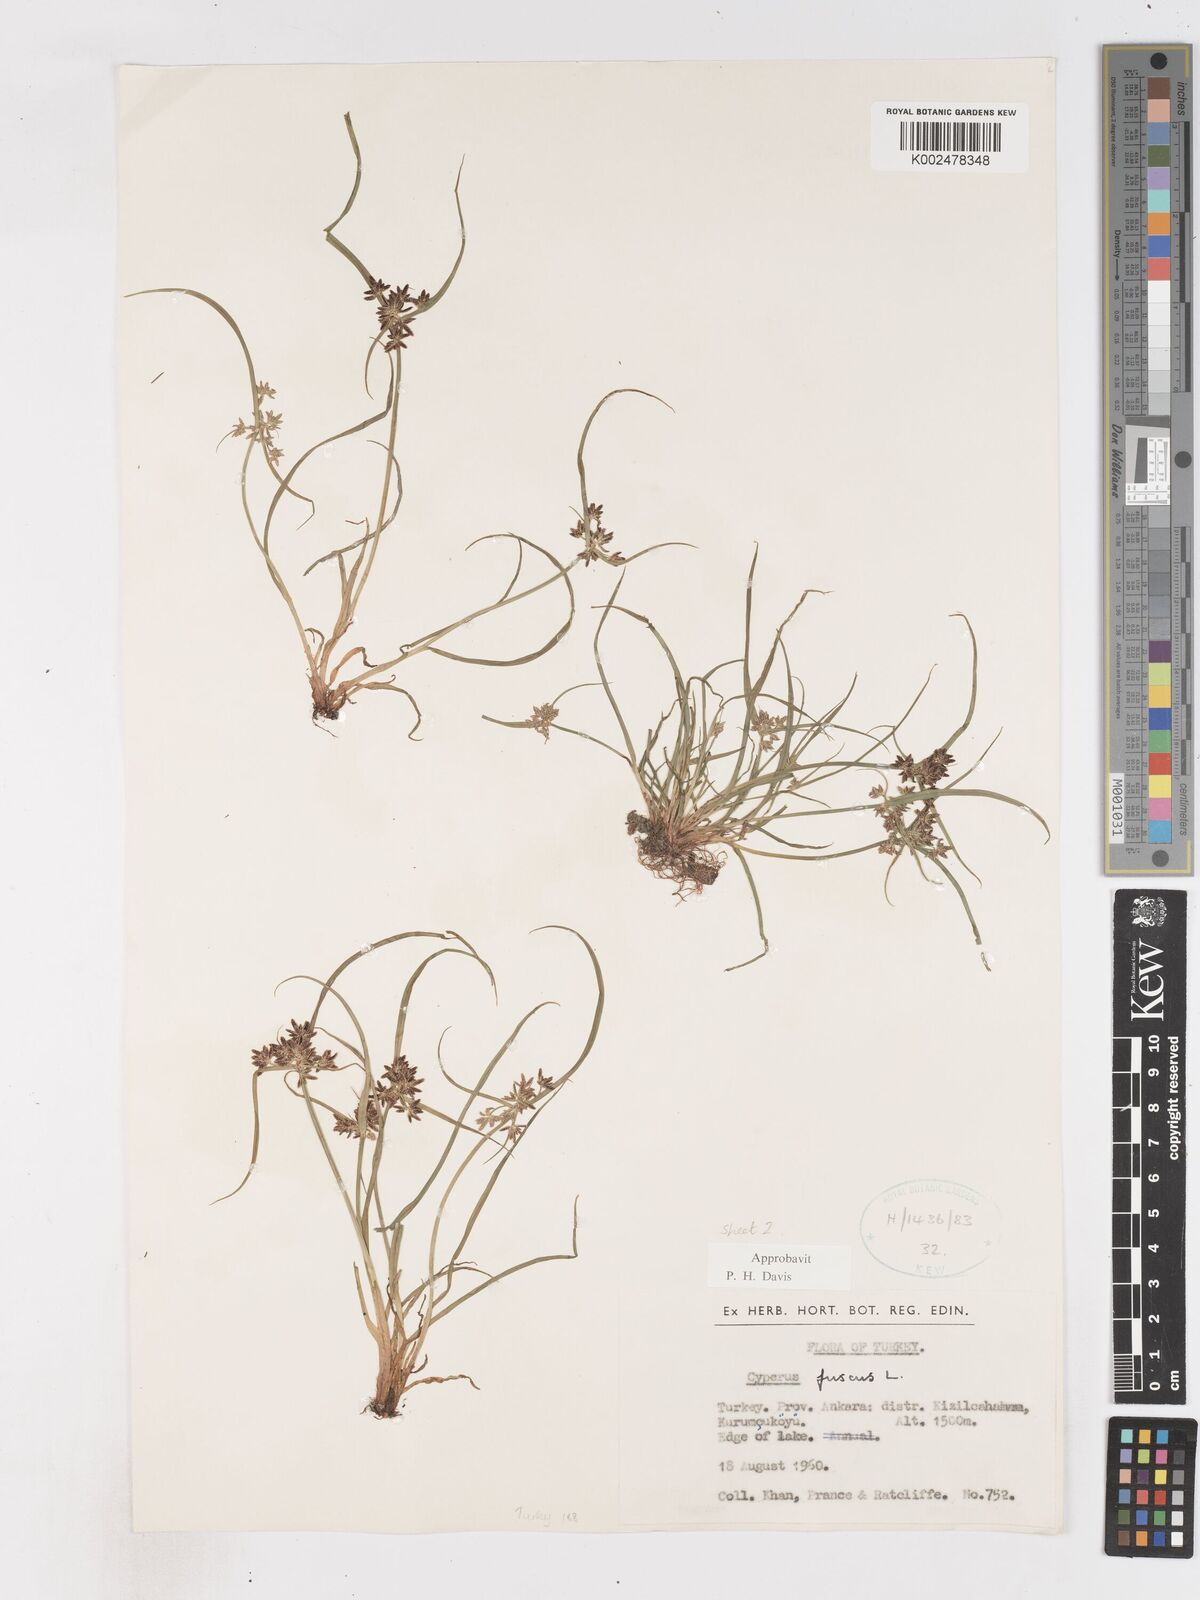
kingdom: Plantae
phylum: Tracheophyta
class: Liliopsida
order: Poales
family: Cyperaceae
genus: Cyperus
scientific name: Cyperus fuscus
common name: Brown galingale
